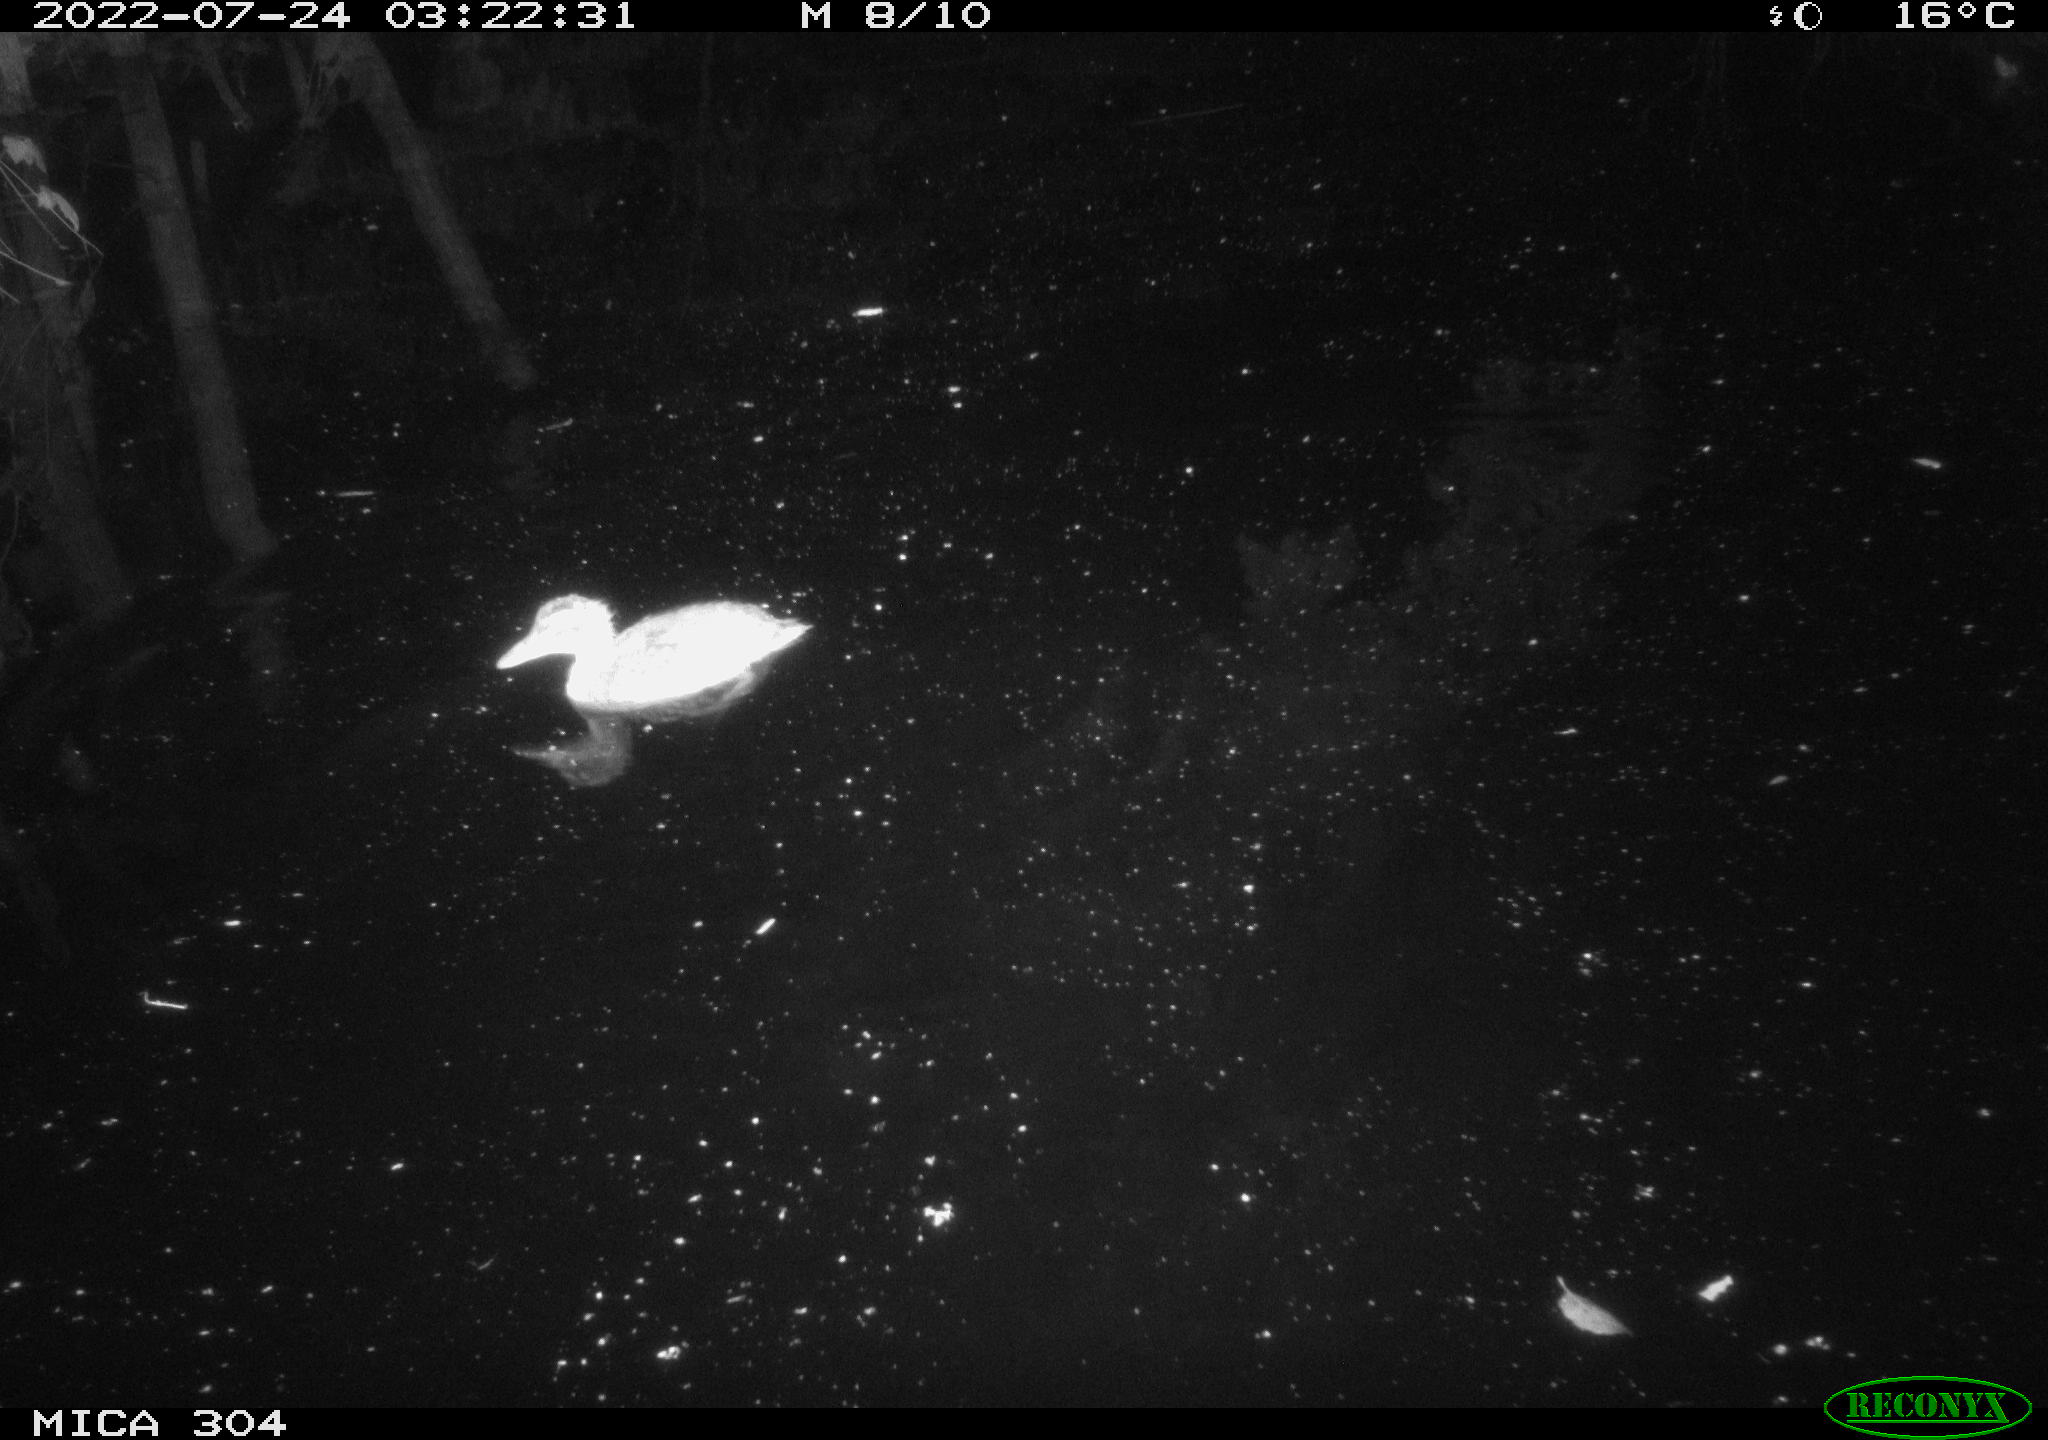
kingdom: Animalia
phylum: Chordata
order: Cypriniformes
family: Cyprinidae
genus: Cyprinus
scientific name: Cyprinus carpio
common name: Common carp
